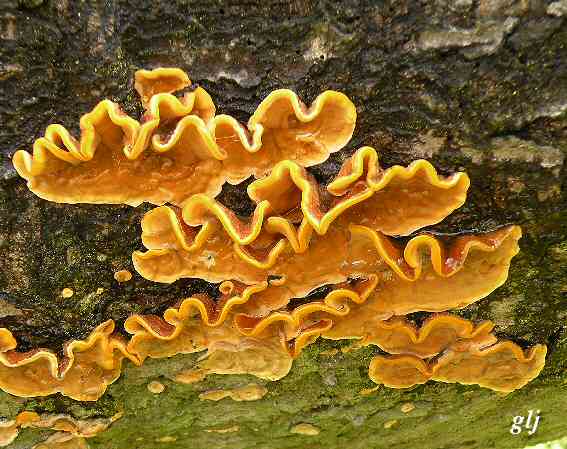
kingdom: Fungi
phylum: Basidiomycota
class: Agaricomycetes
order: Russulales
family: Stereaceae
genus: Stereum
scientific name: Stereum hirsutum
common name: håret lædersvamp
